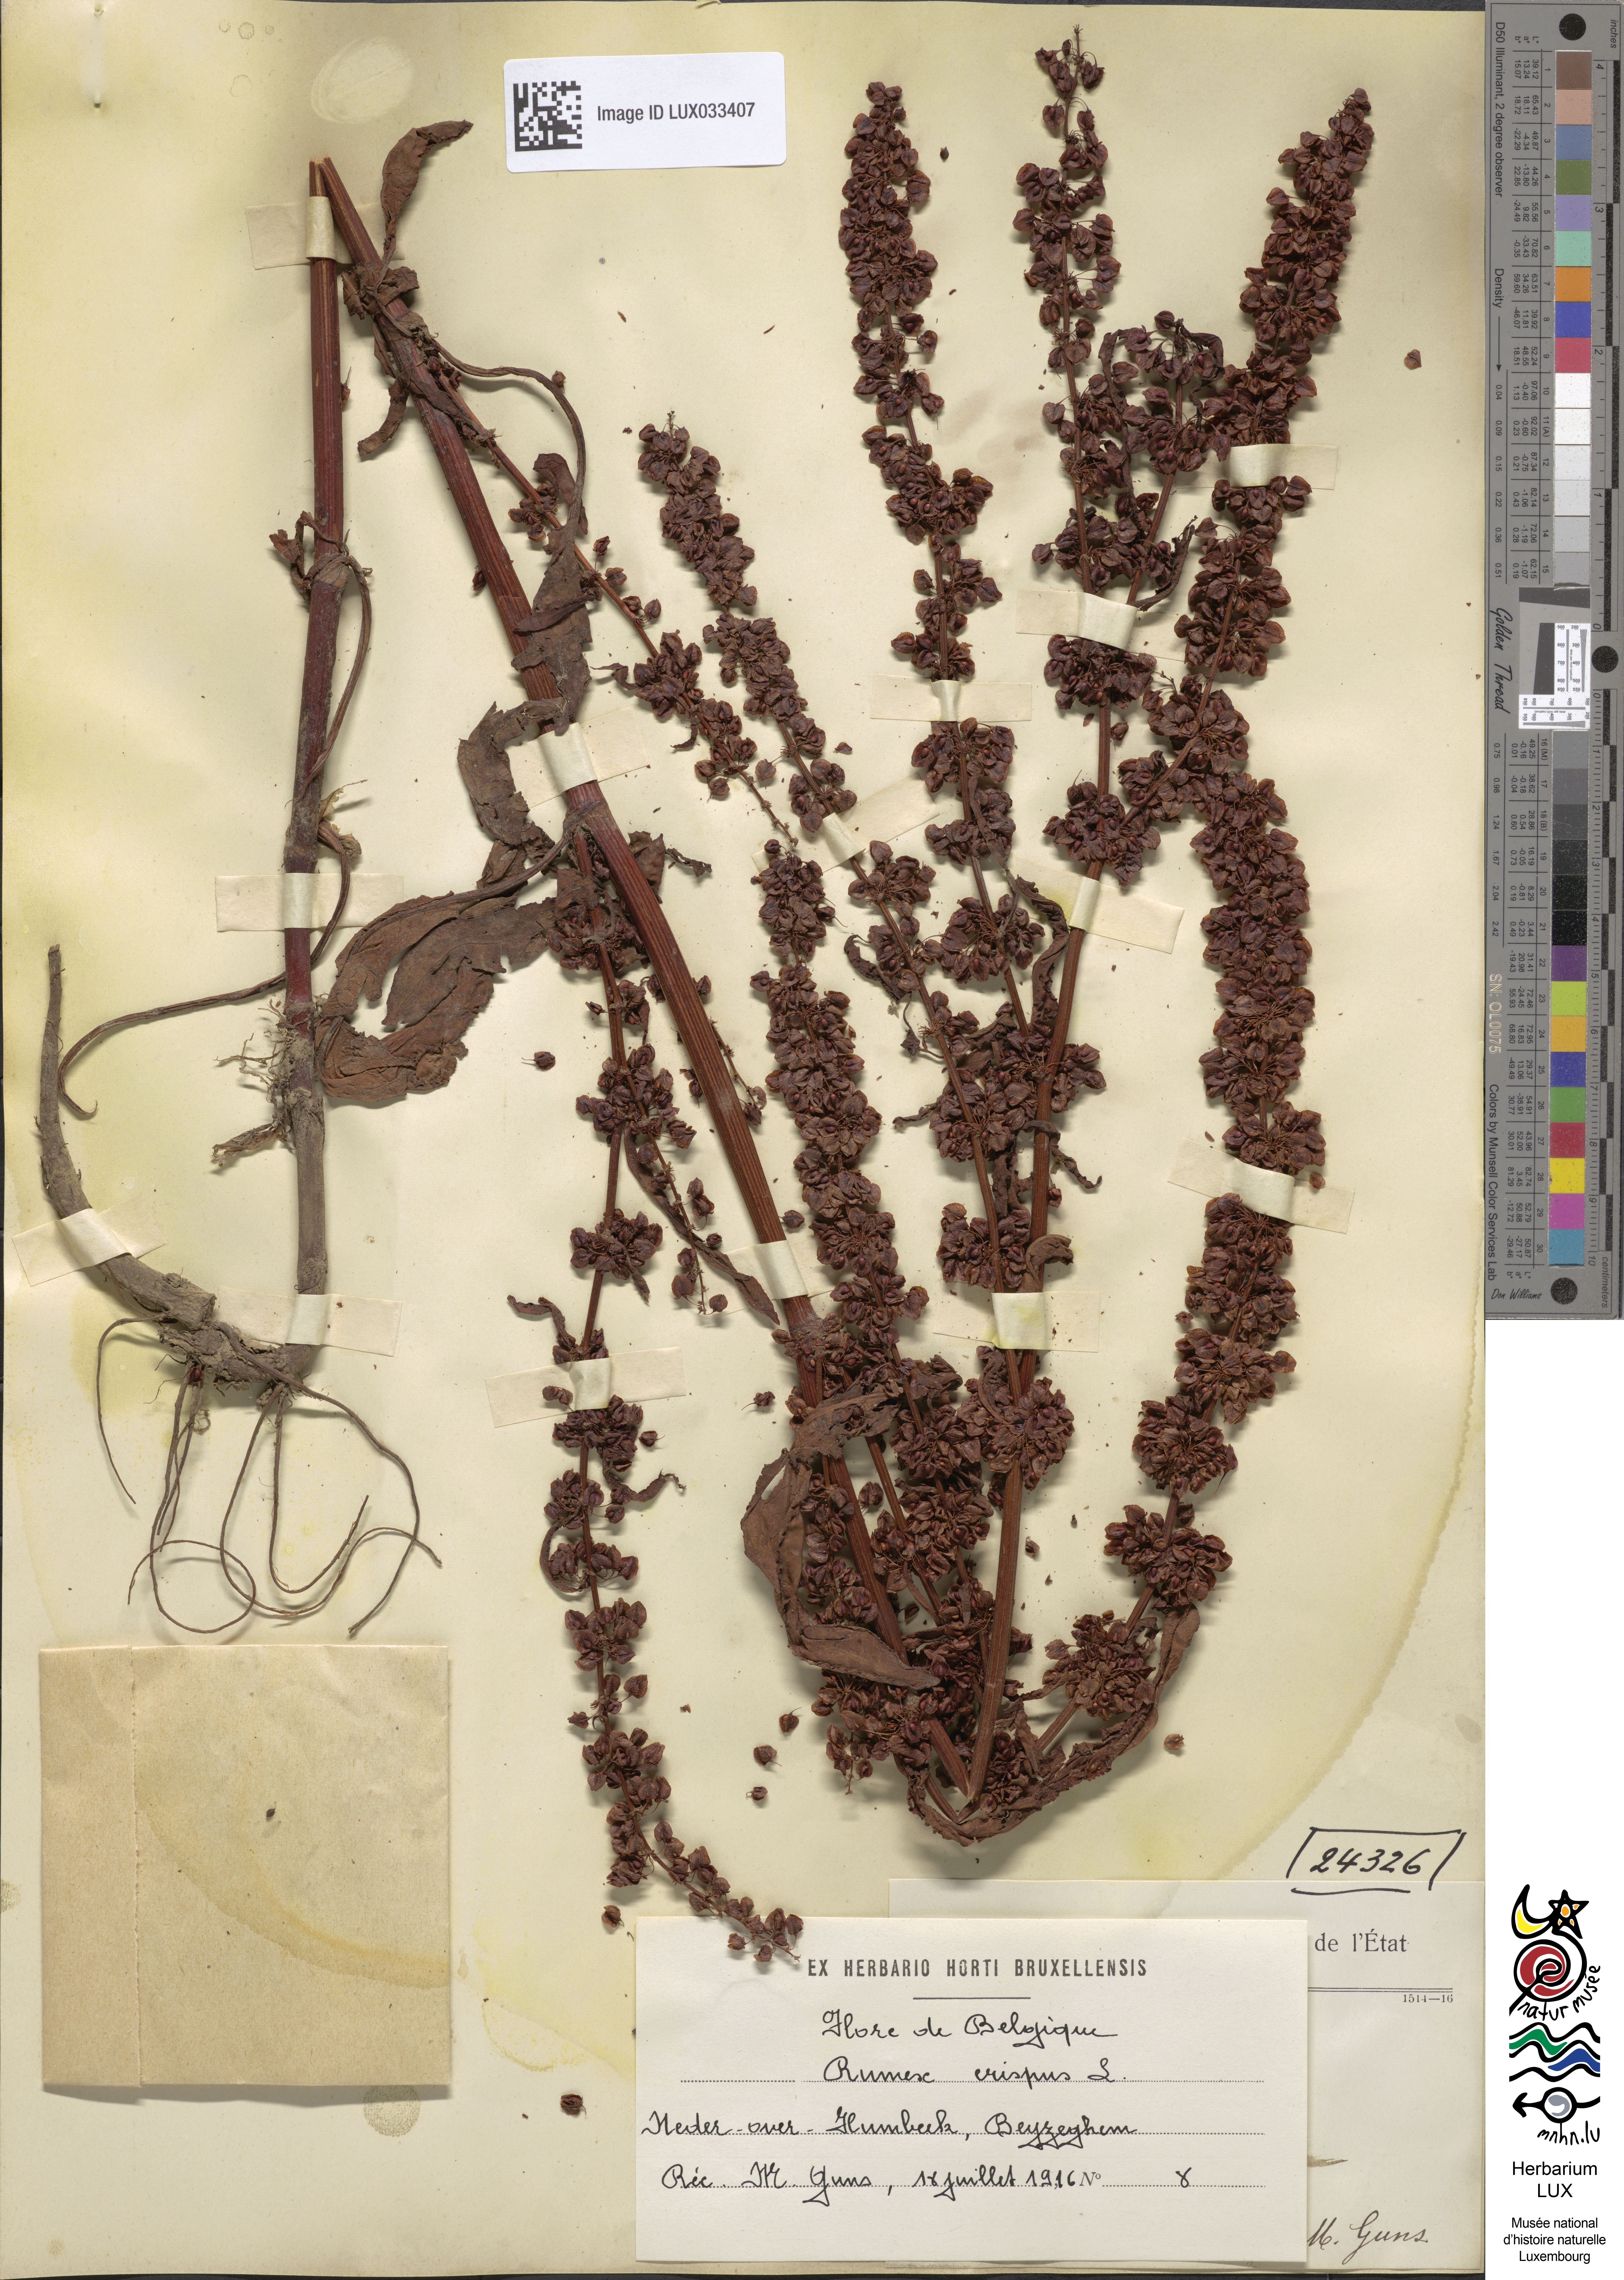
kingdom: Plantae
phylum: Tracheophyta
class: Magnoliopsida
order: Caryophyllales
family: Polygonaceae
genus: Rumex
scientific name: Rumex crispus
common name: Curled dock
